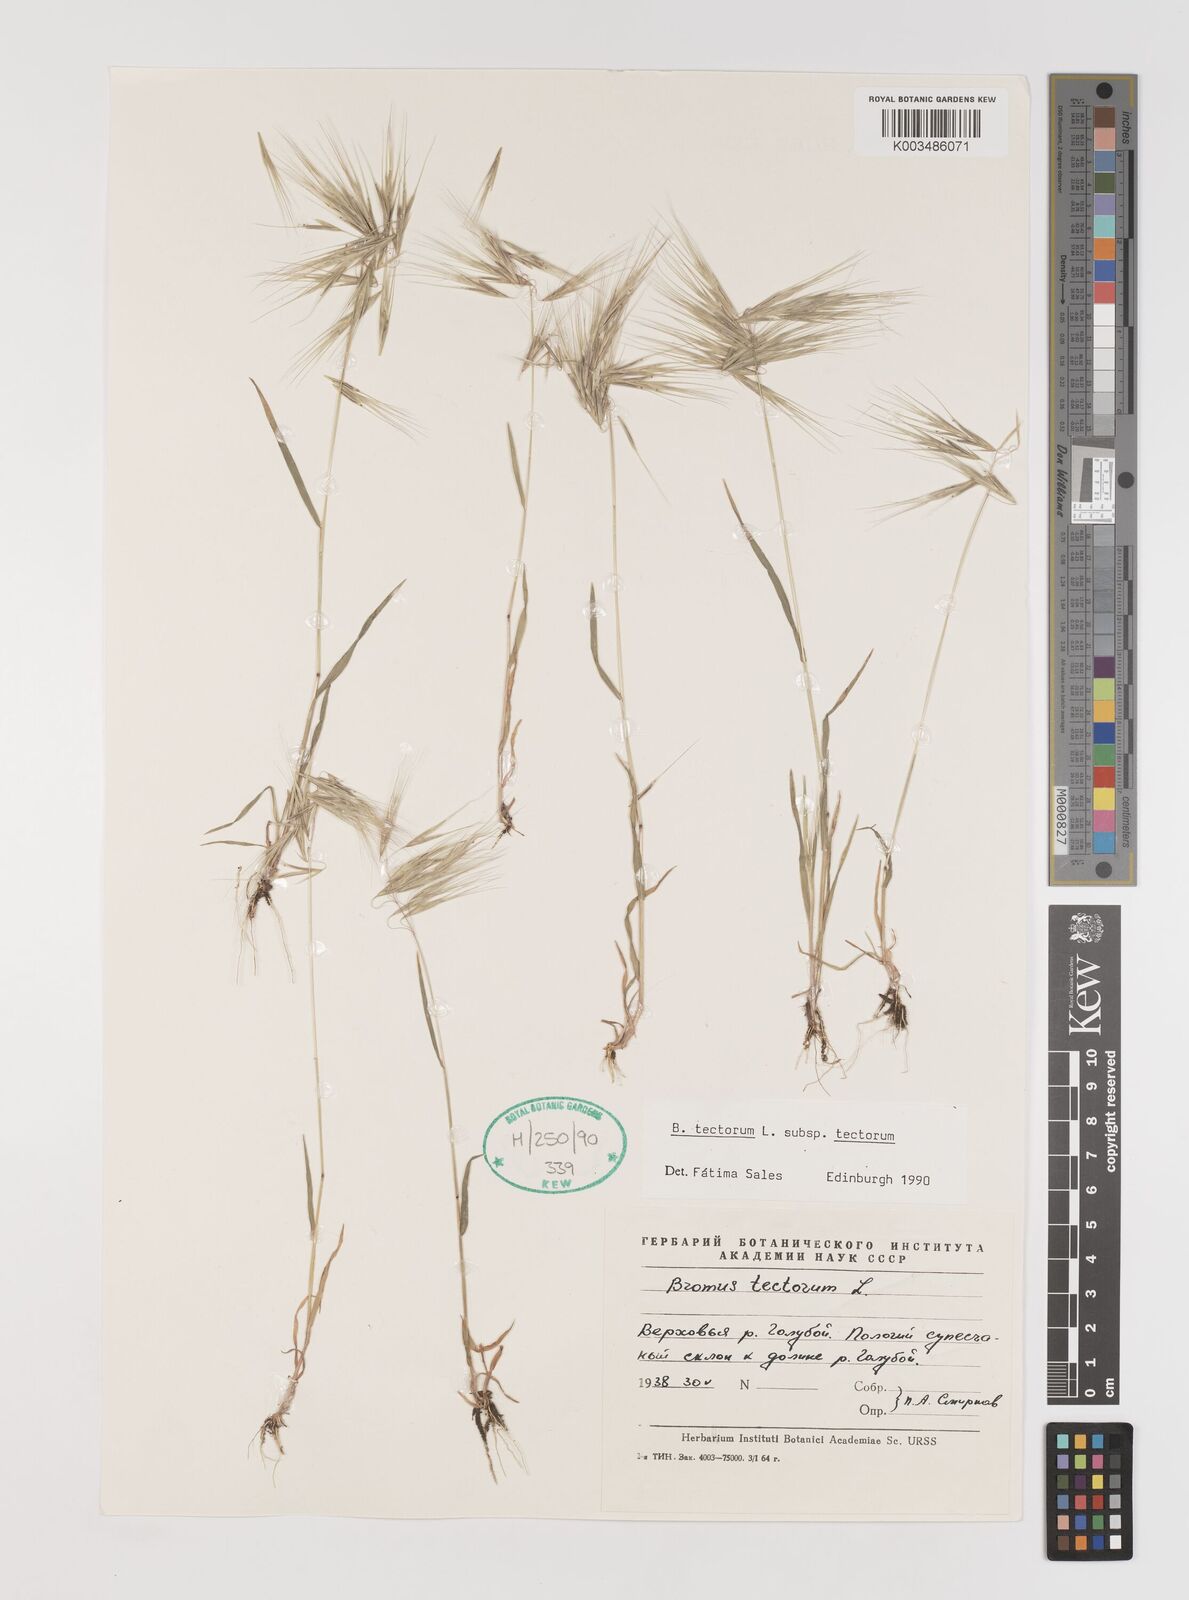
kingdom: Plantae
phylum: Tracheophyta
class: Liliopsida
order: Poales
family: Poaceae
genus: Bromus
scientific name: Bromus tectorum
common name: Cheatgrass
